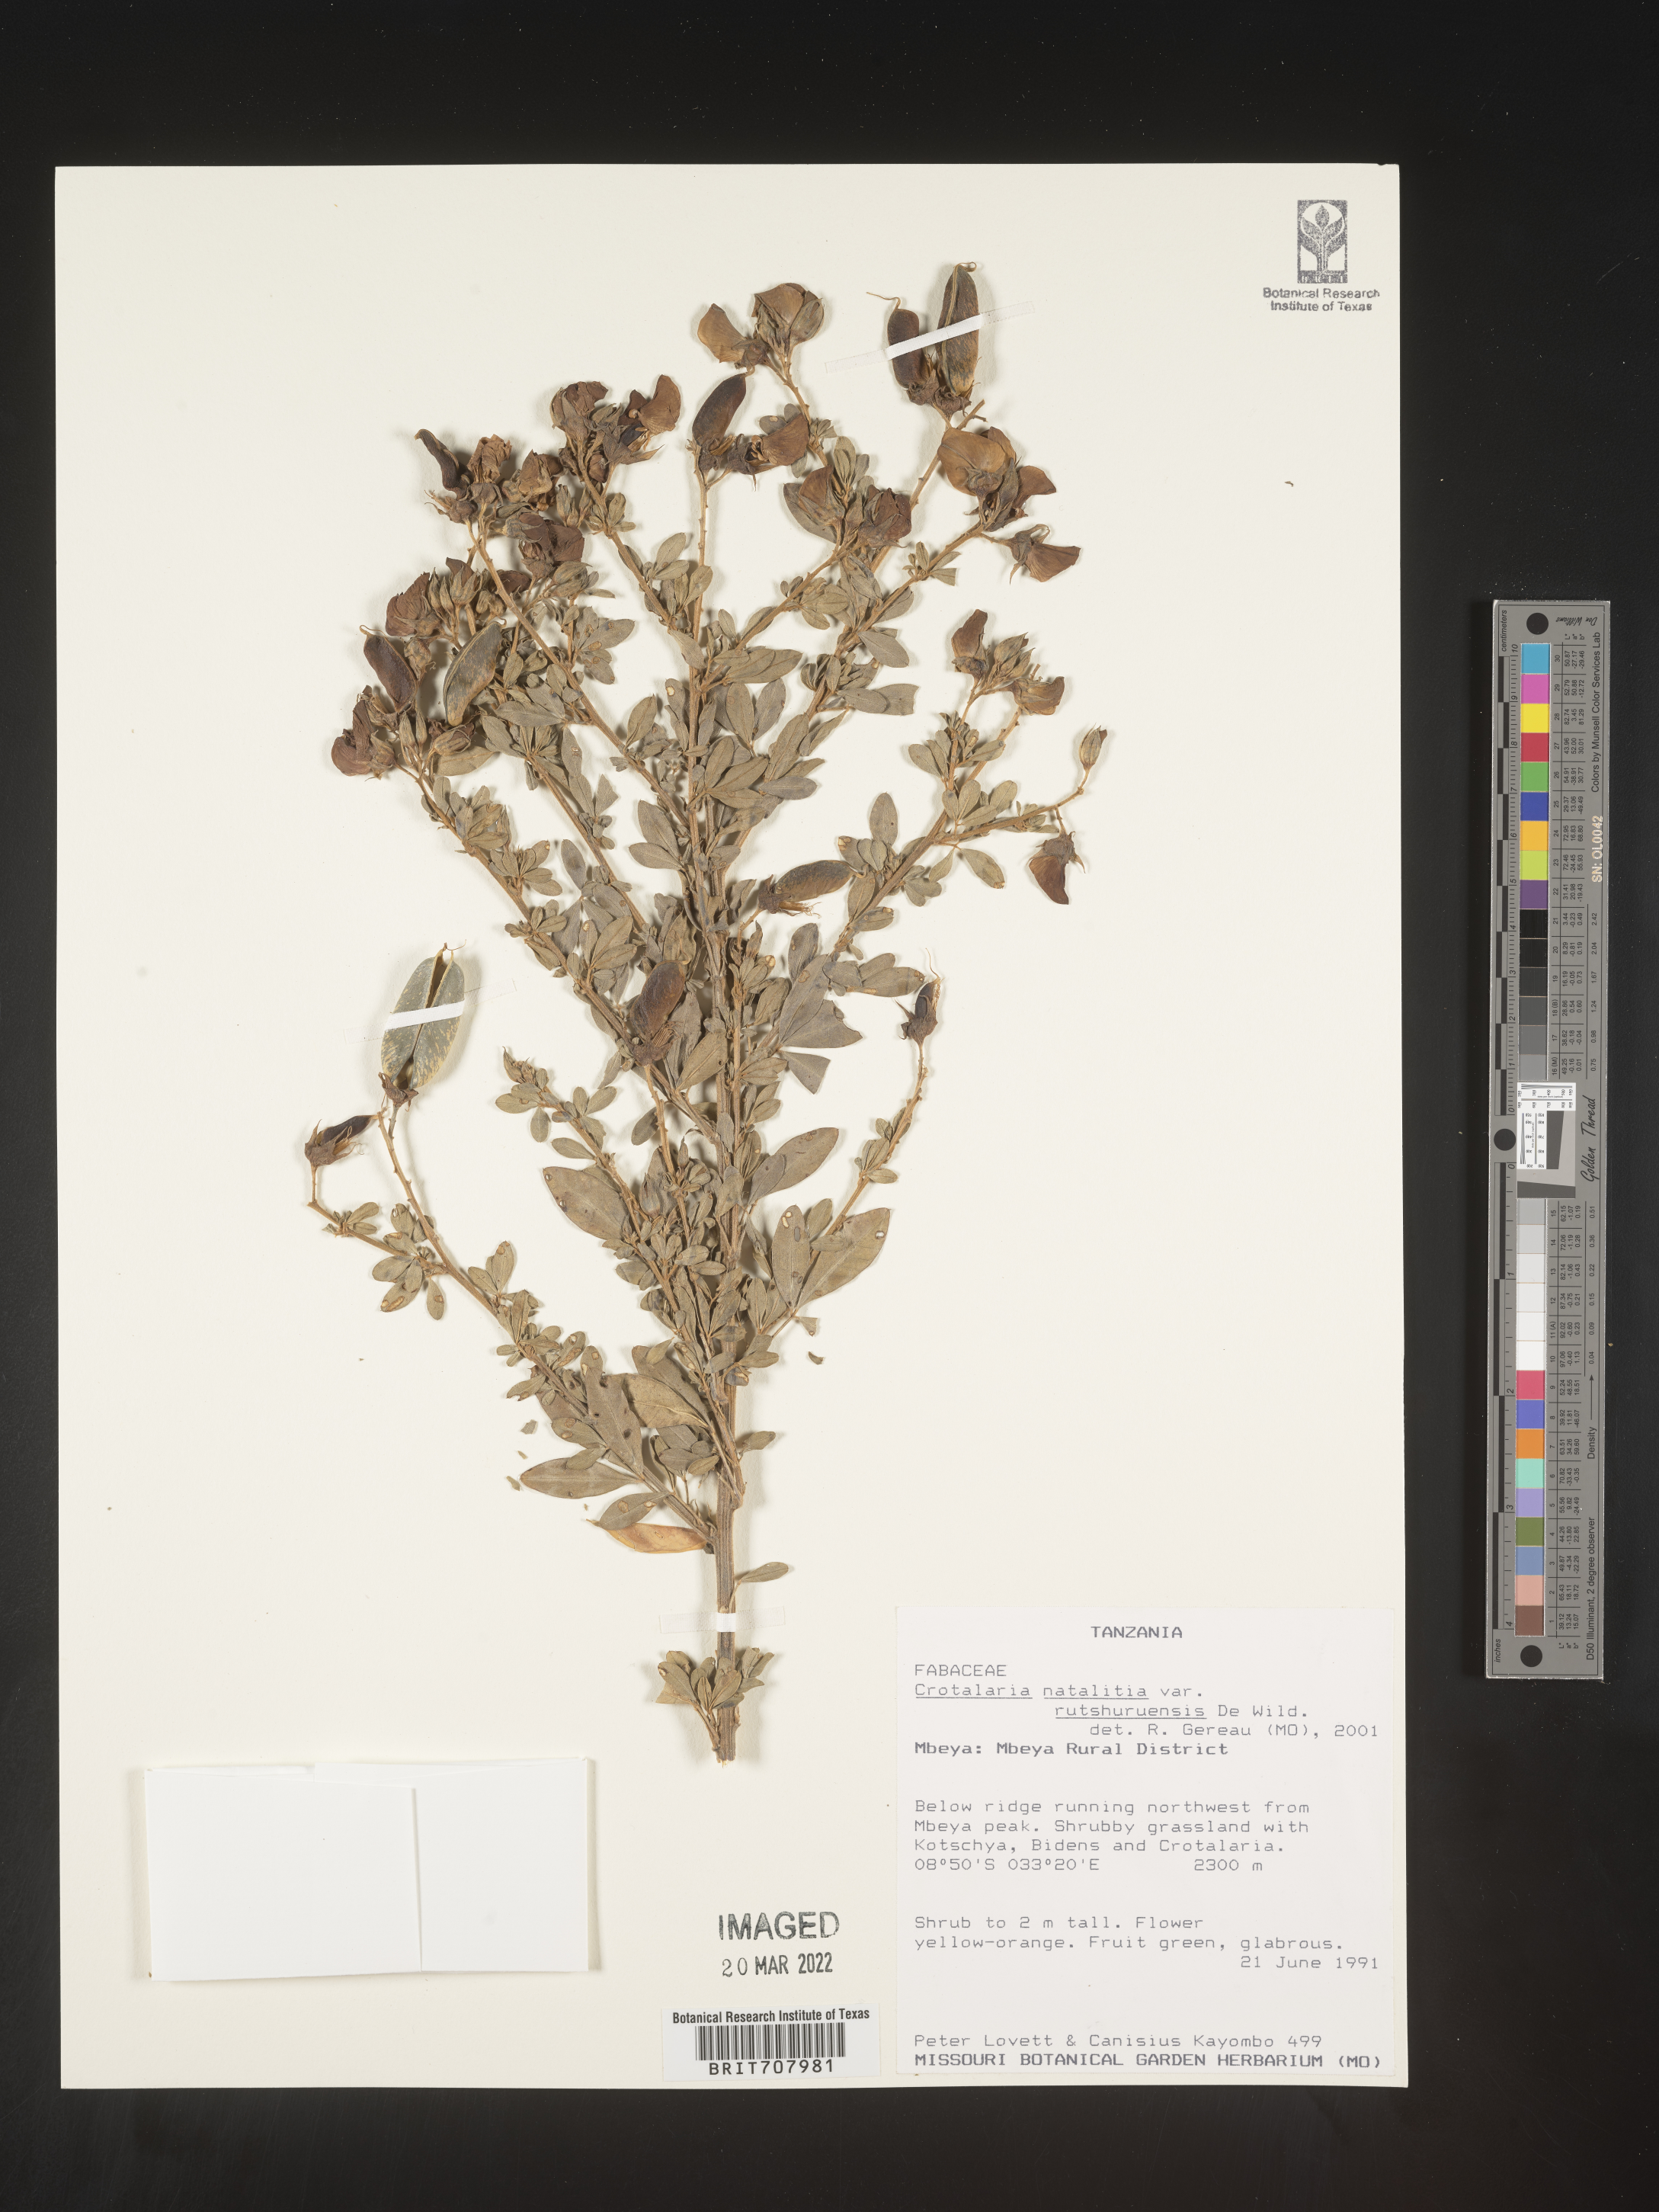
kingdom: Plantae
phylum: Tracheophyta
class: Magnoliopsida
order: Fabales
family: Fabaceae
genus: Crotalaria
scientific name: Crotalaria
